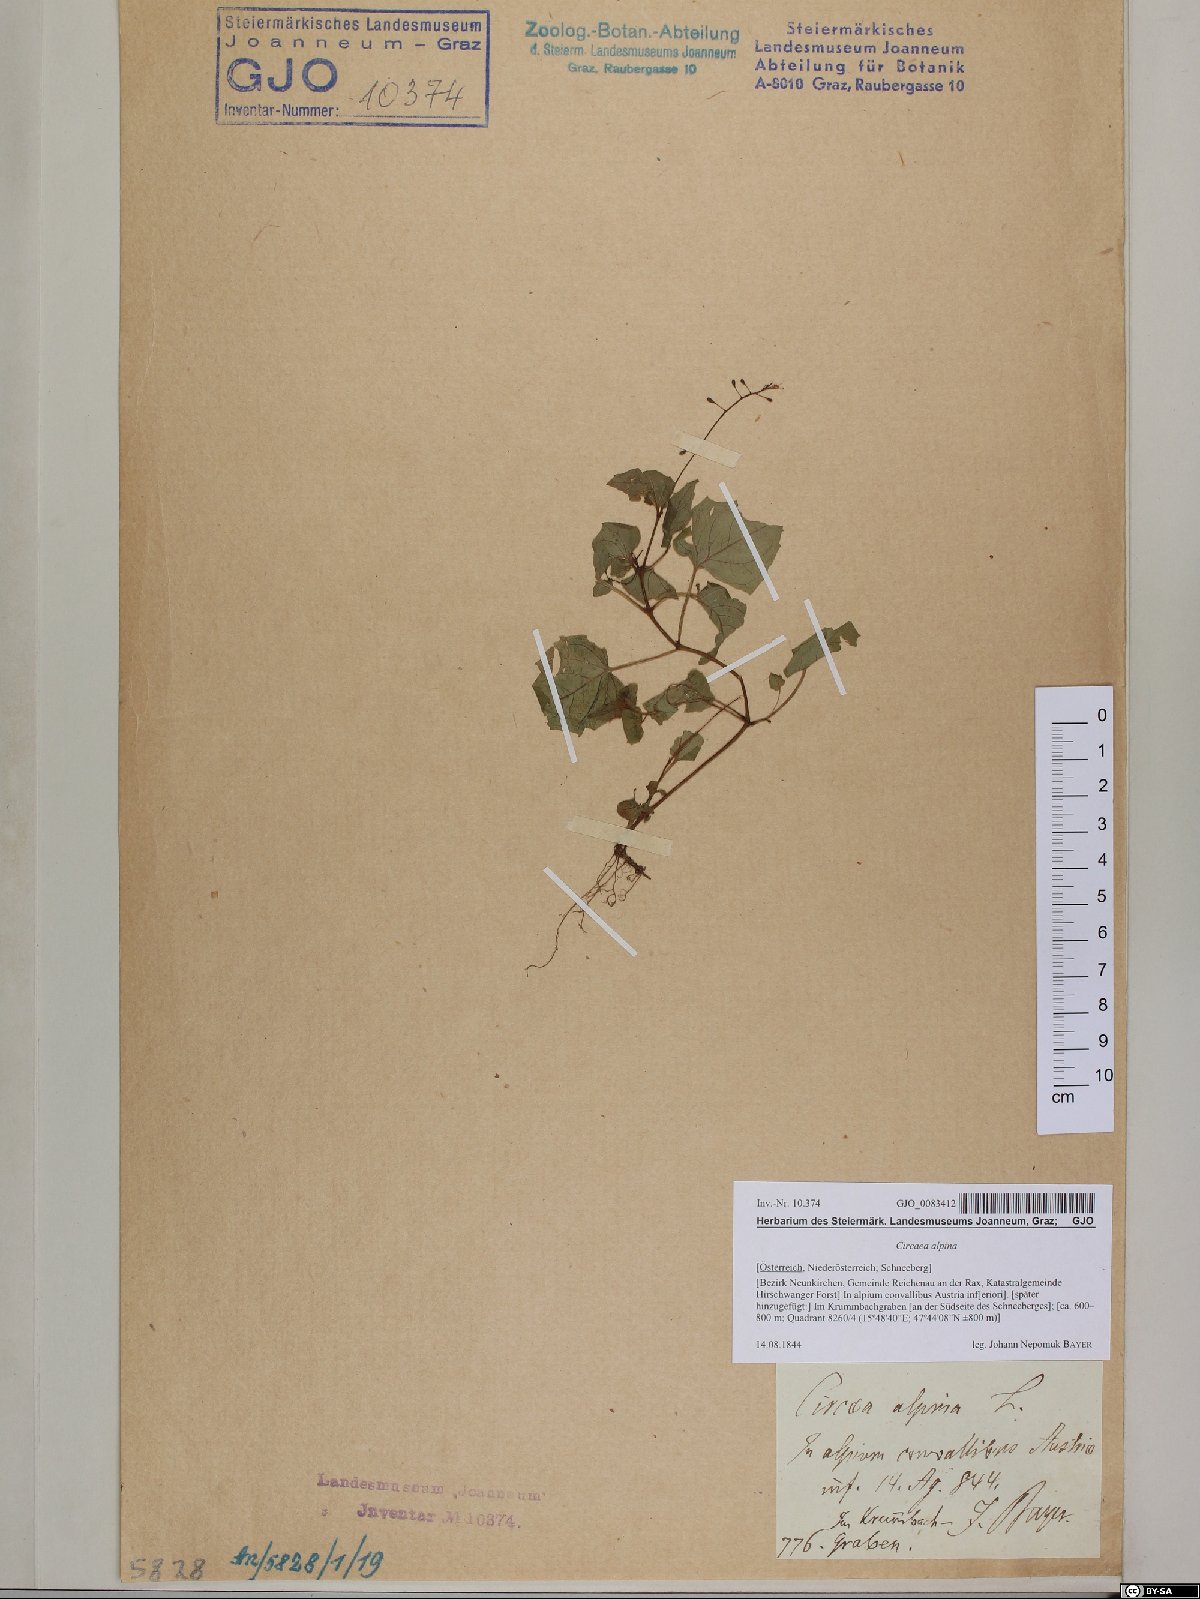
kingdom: Plantae
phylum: Tracheophyta
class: Magnoliopsida
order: Myrtales
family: Onagraceae
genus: Circaea
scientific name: Circaea alpina
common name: Alpine enchanter's-nightshade
